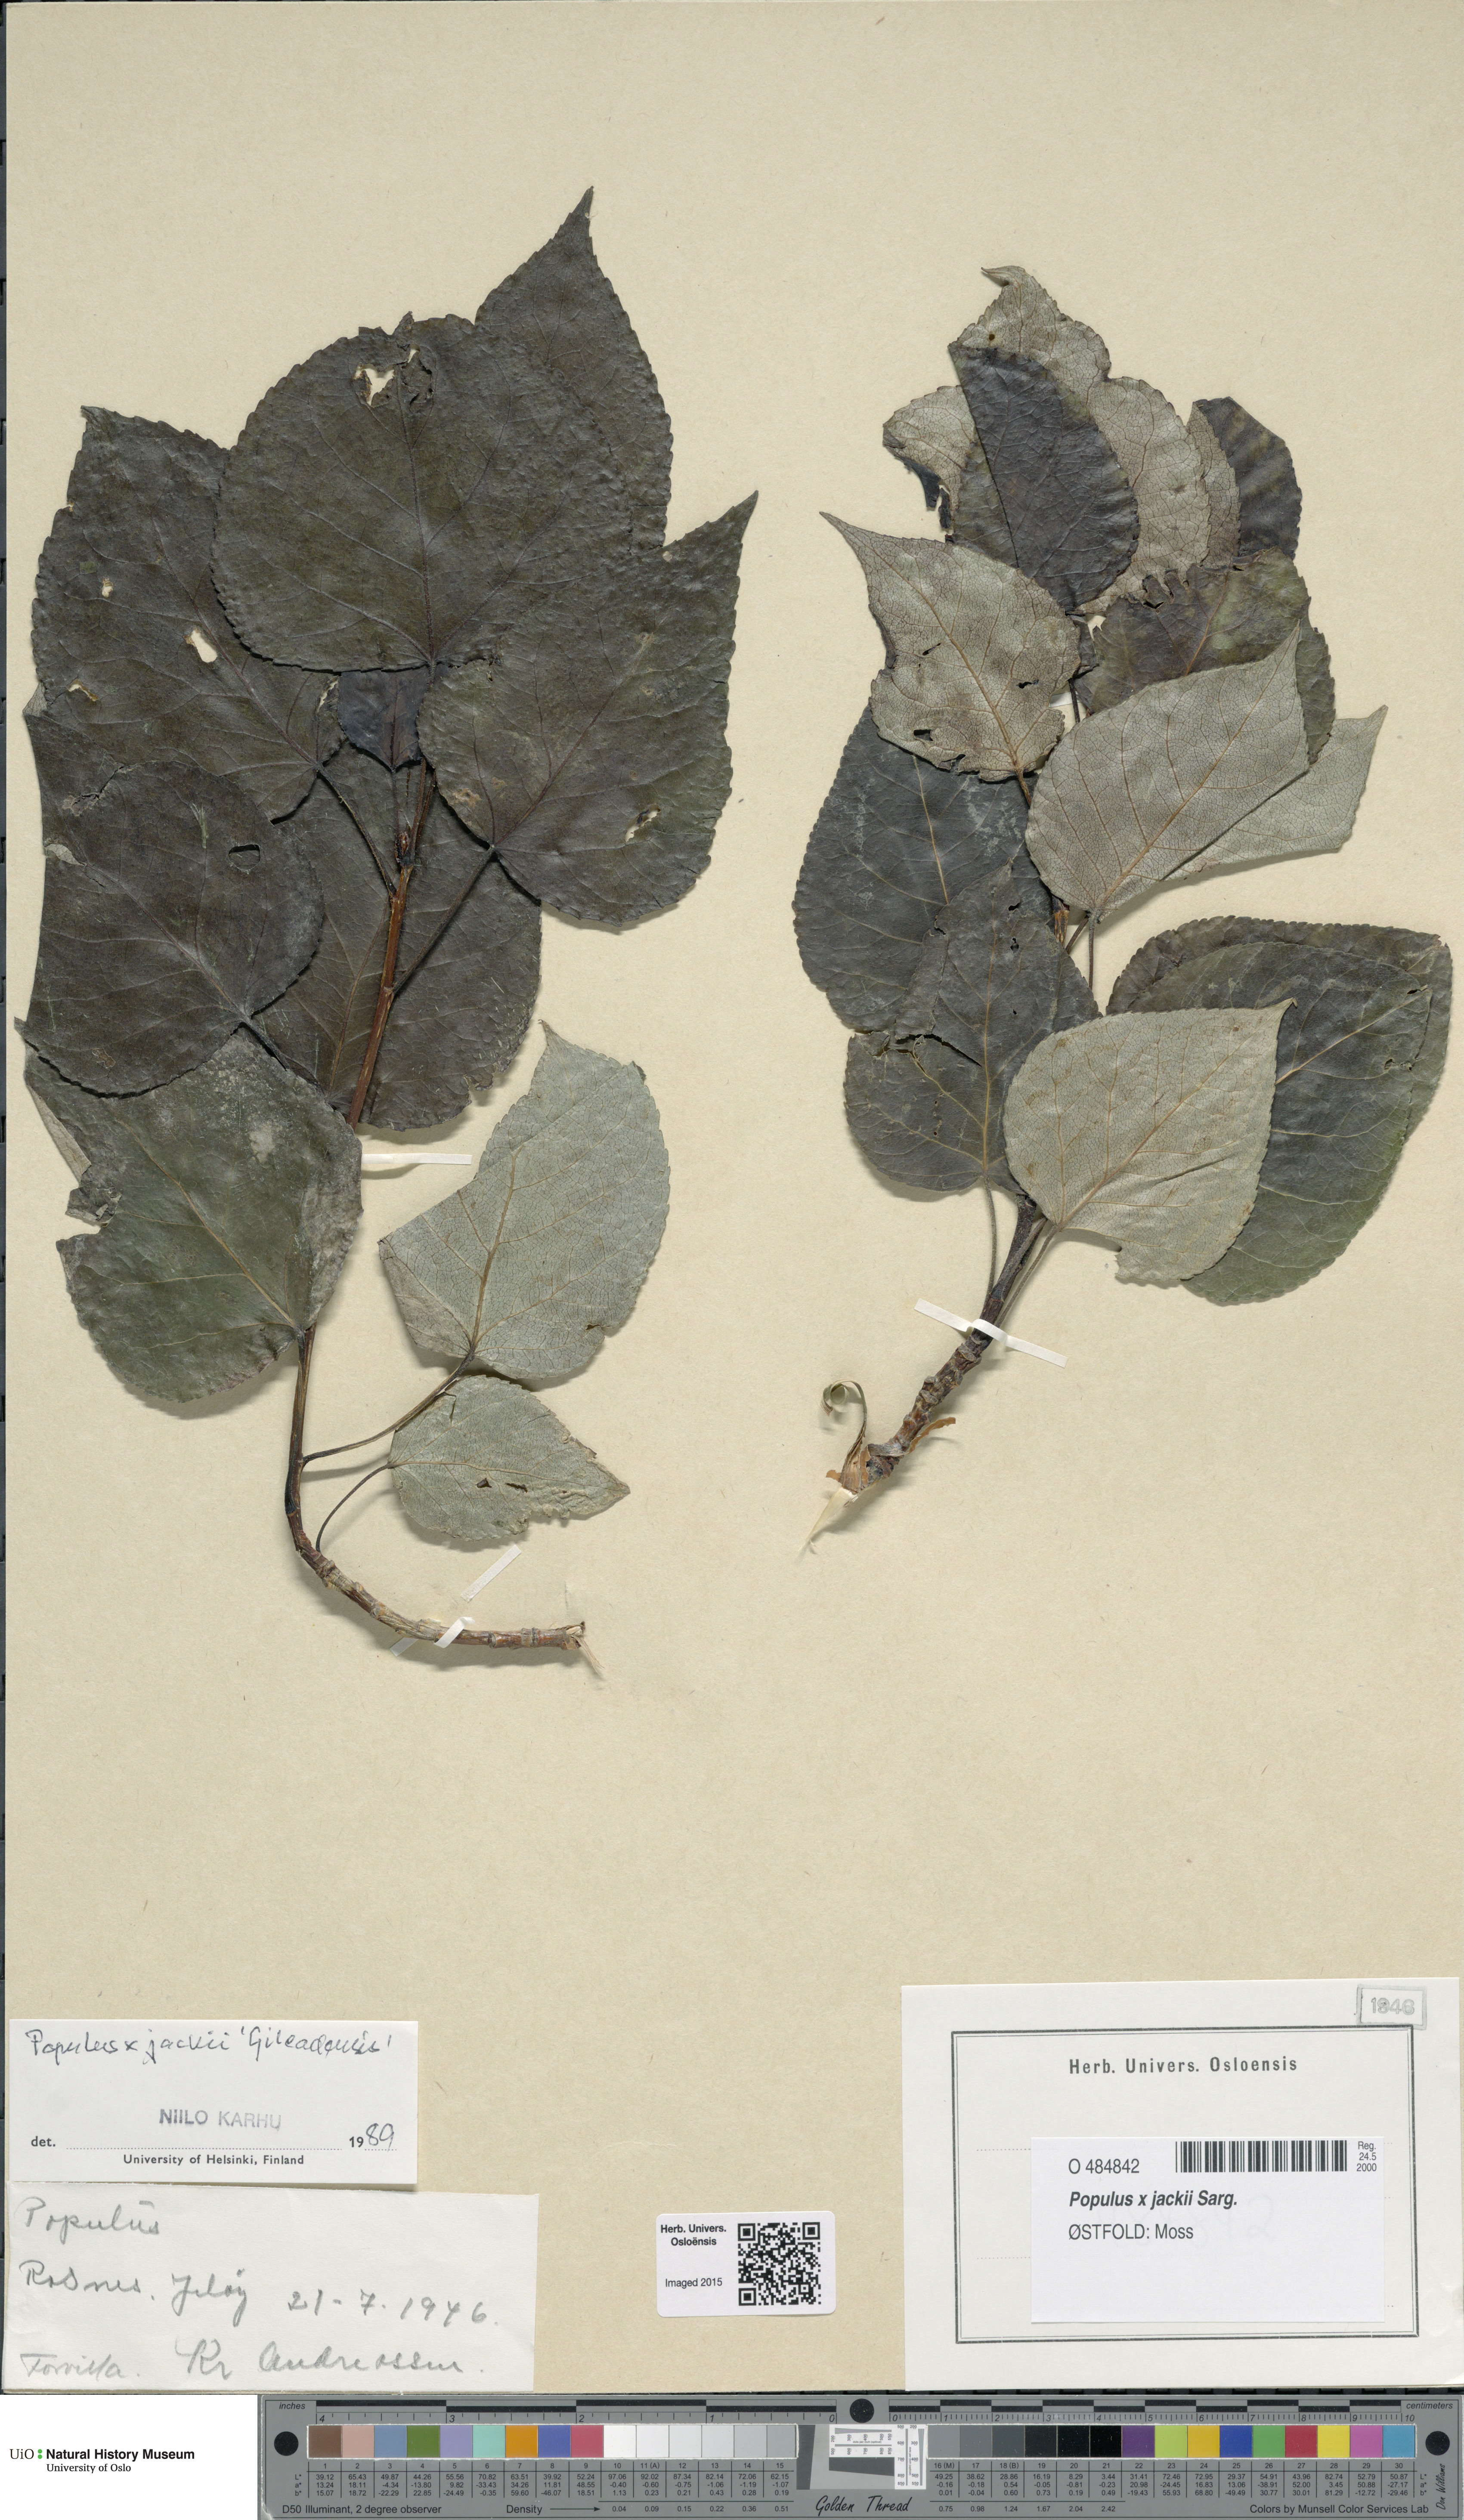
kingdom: Plantae
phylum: Tracheophyta
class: Magnoliopsida
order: Malpighiales
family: Salicaceae
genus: Populus
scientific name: Populus jackii
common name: Balm-of-gilead
